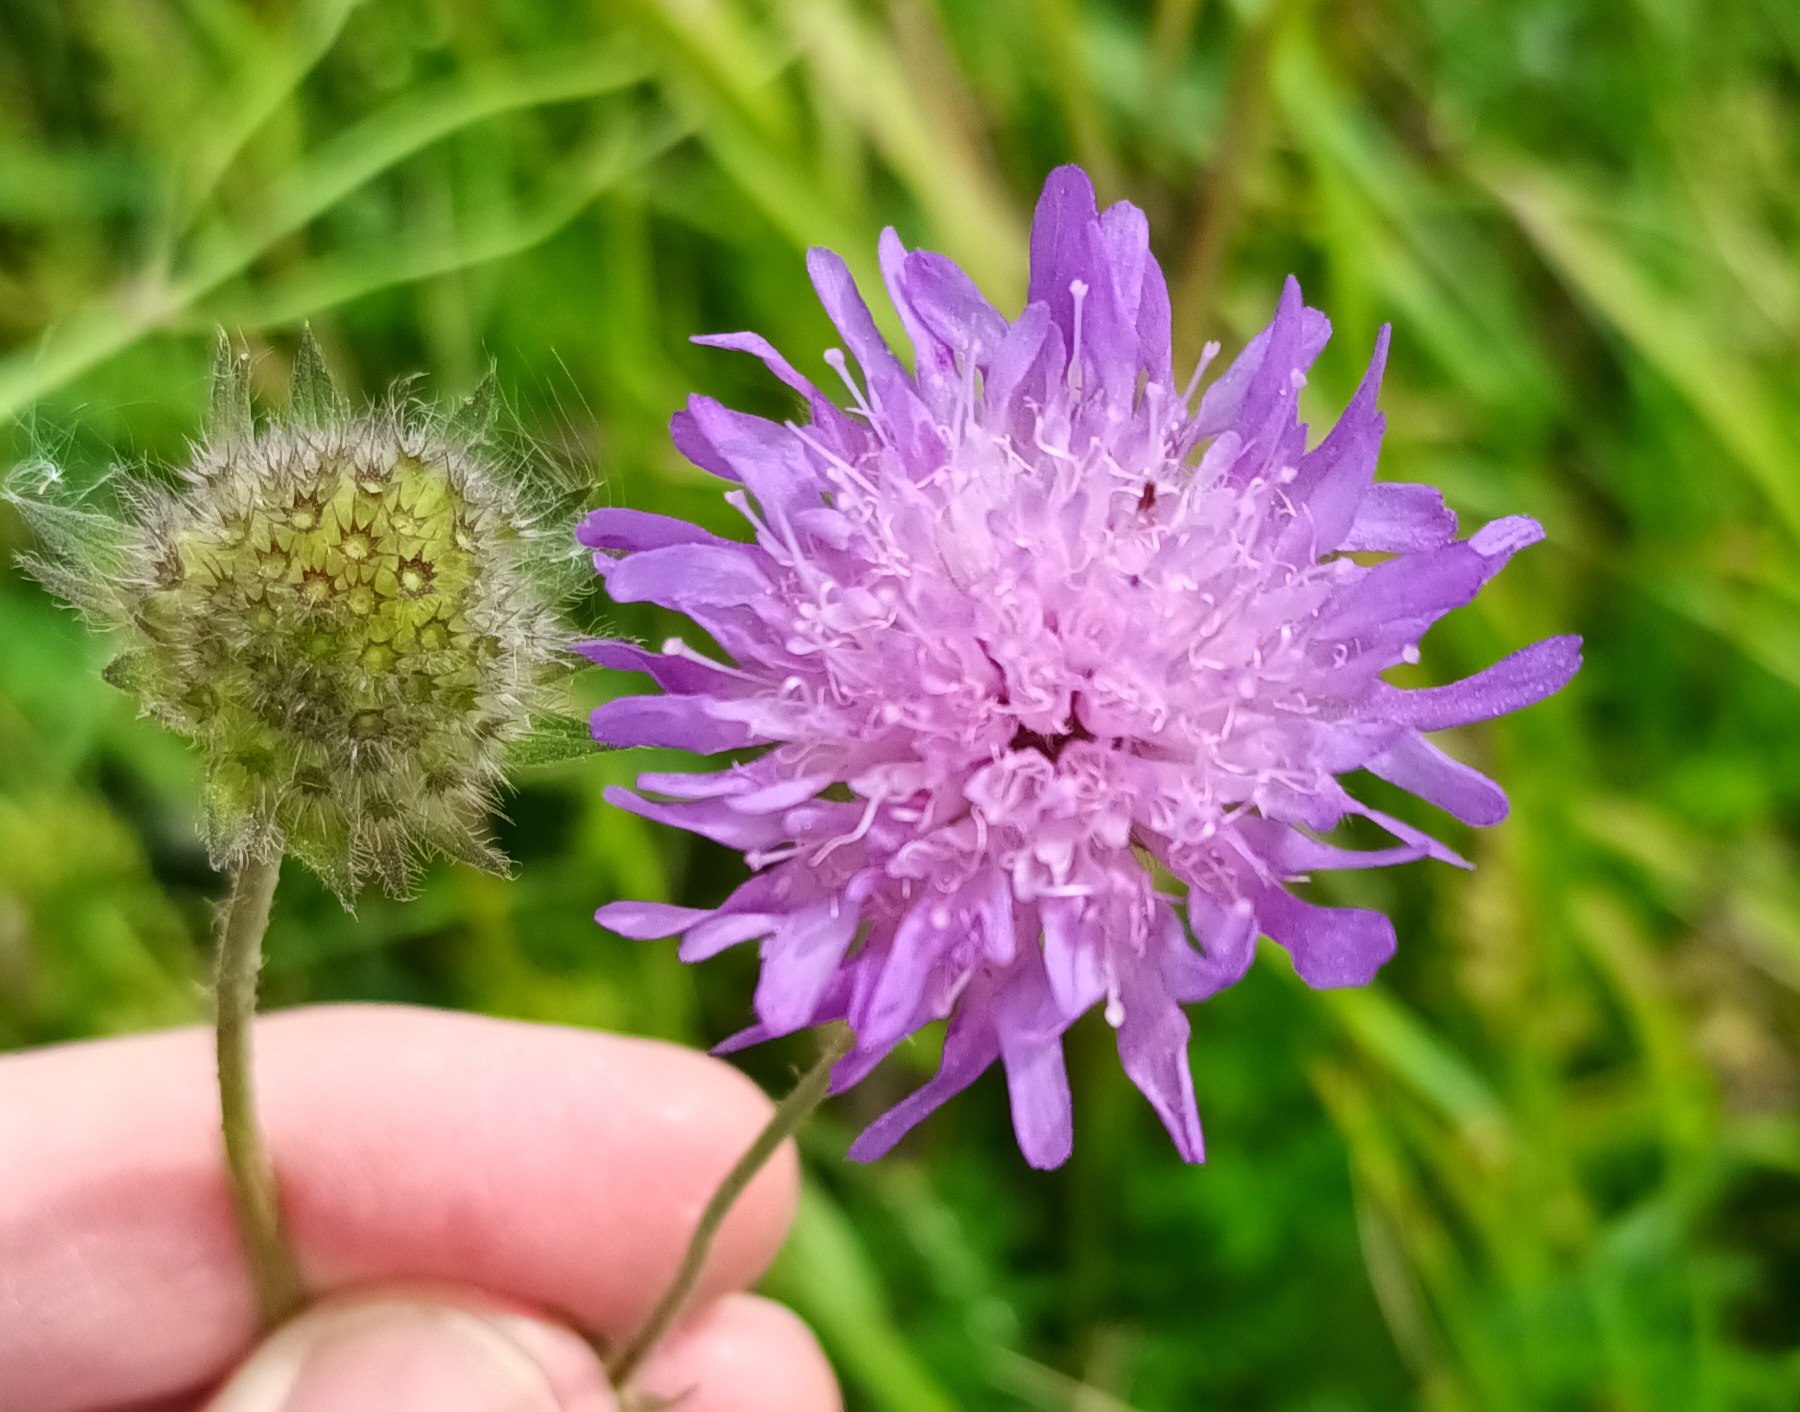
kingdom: Plantae
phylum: Tracheophyta
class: Magnoliopsida
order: Dipsacales
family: Caprifoliaceae
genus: Knautia
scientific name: Knautia arvensis
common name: Blåhat
